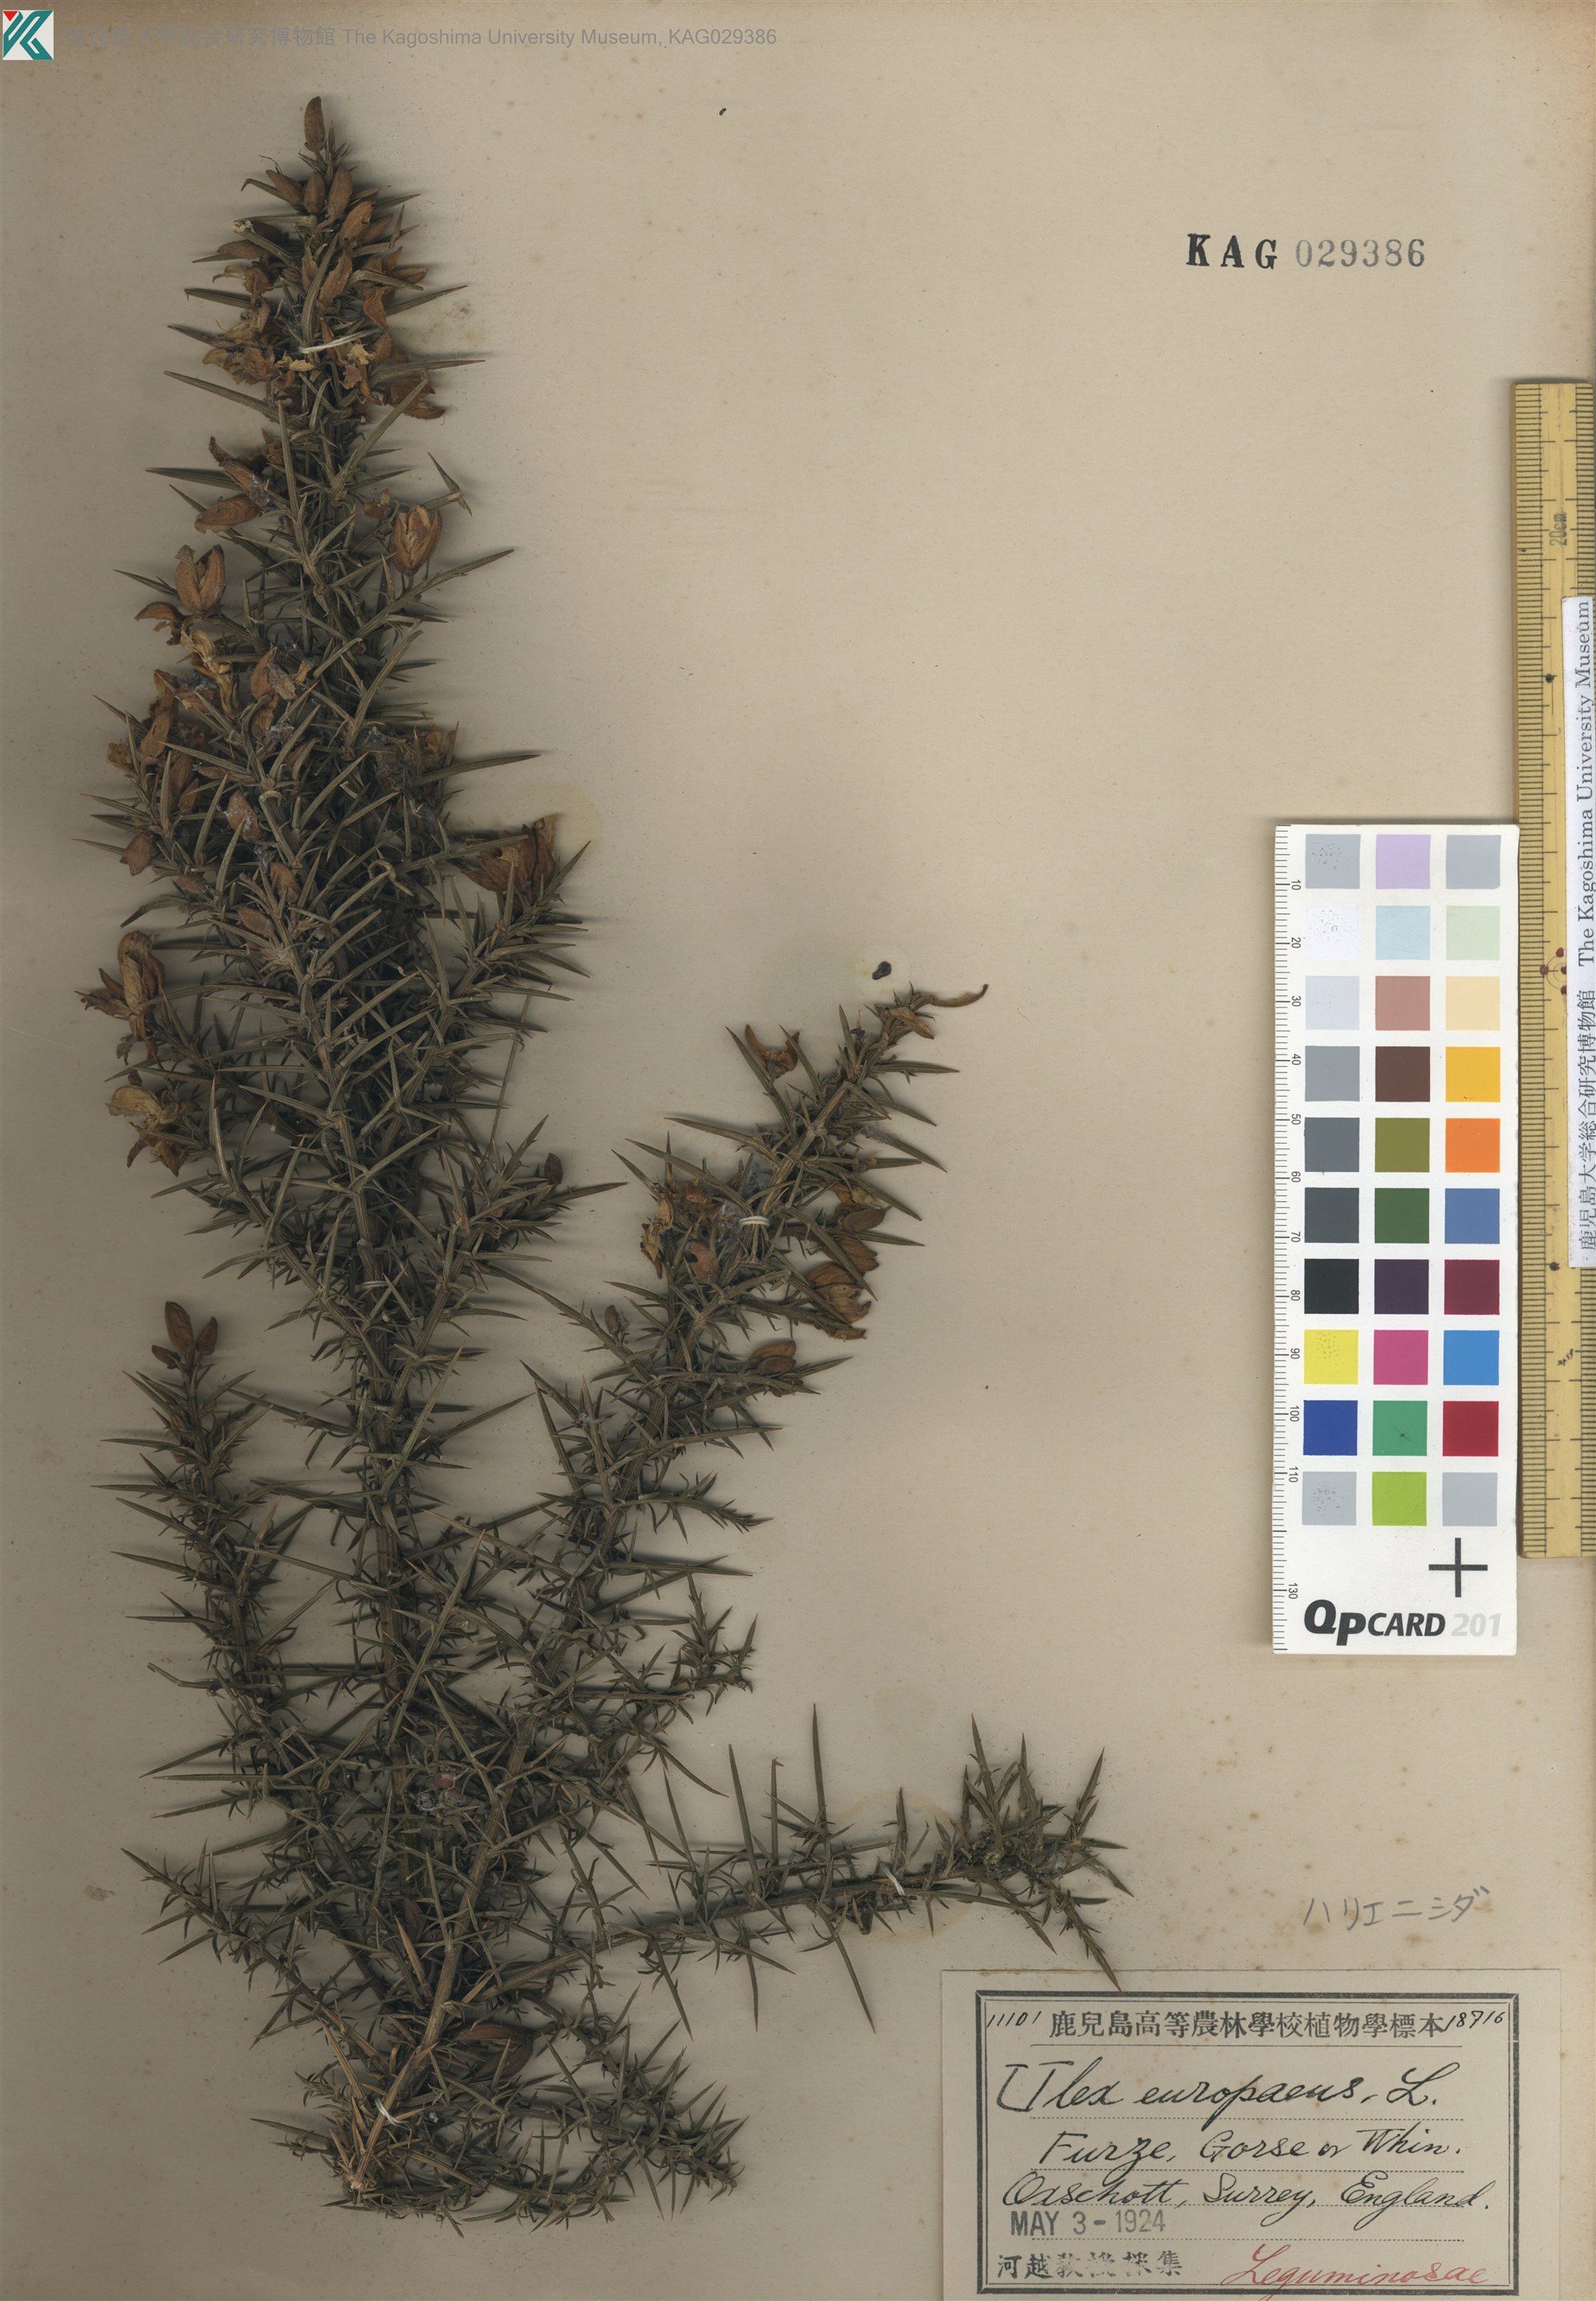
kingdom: Plantae
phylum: Tracheophyta
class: Magnoliopsida
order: Fabales
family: Fabaceae
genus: Ulex
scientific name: Ulex europaeus
